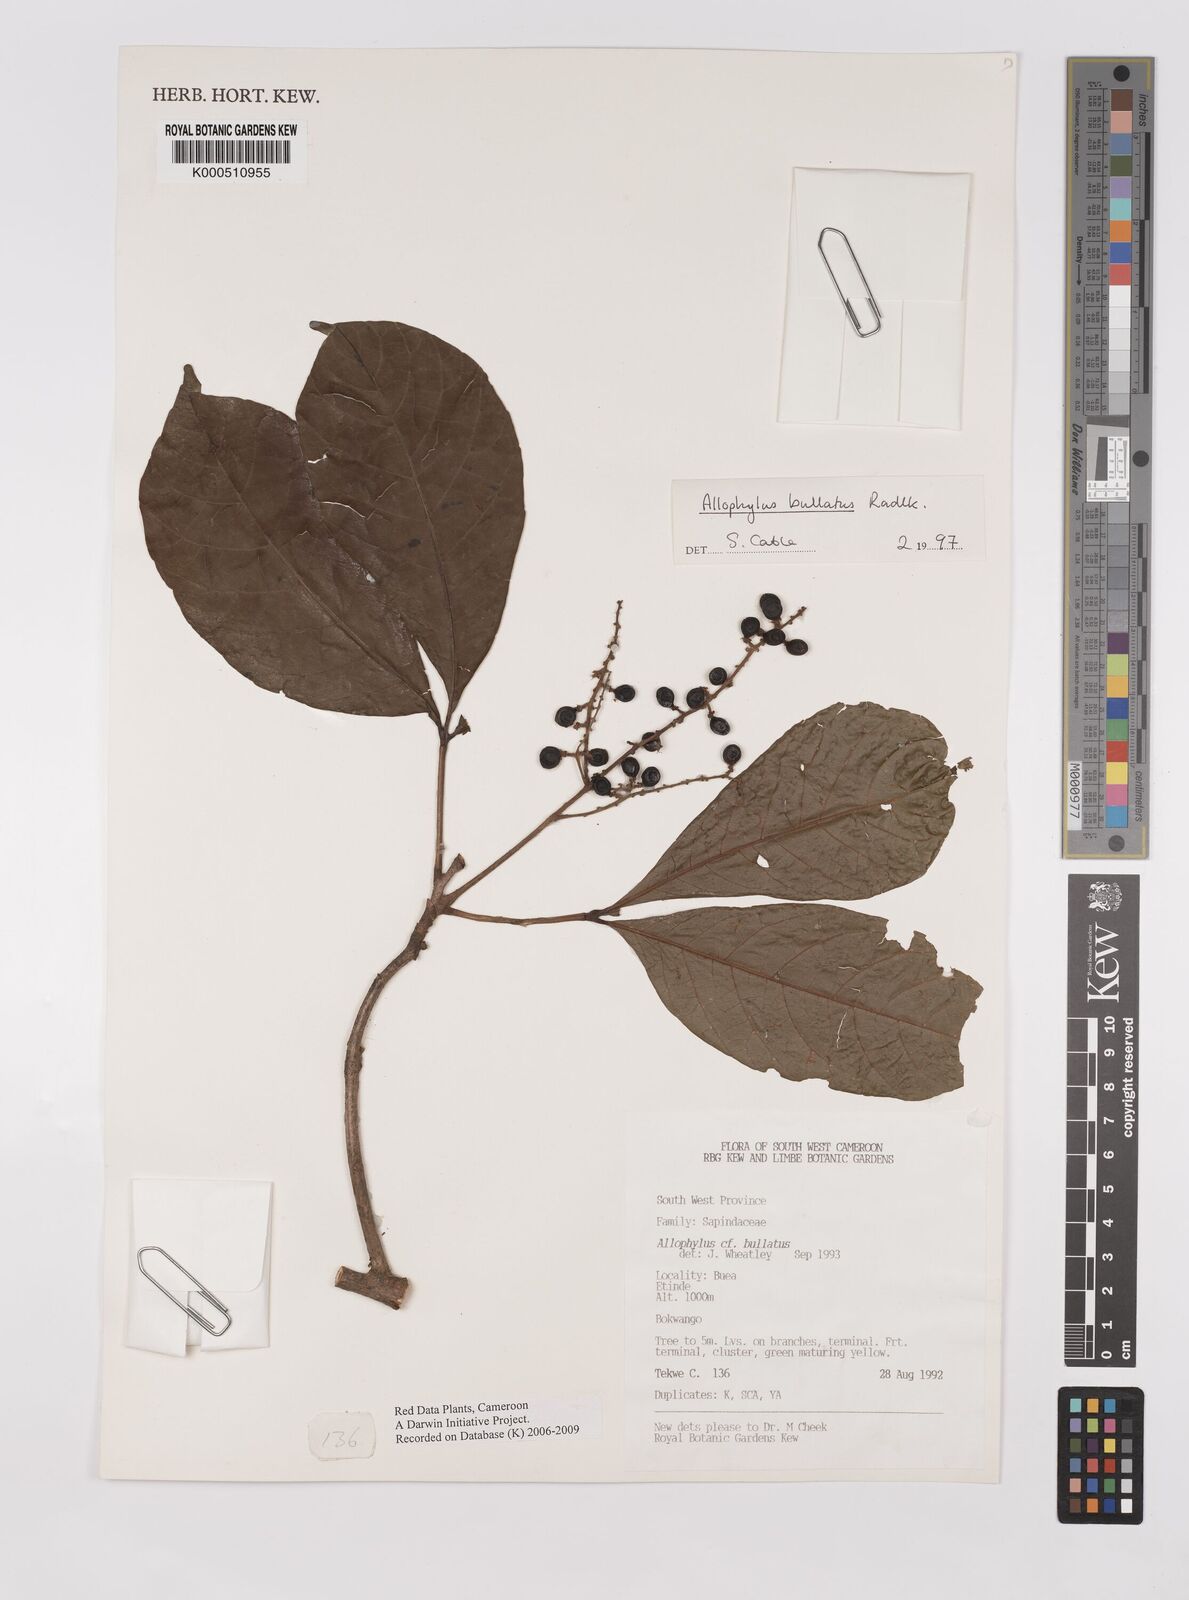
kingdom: Plantae
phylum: Tracheophyta
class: Magnoliopsida
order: Sapindales
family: Sapindaceae
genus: Allophylus
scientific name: Allophylus bullatus
